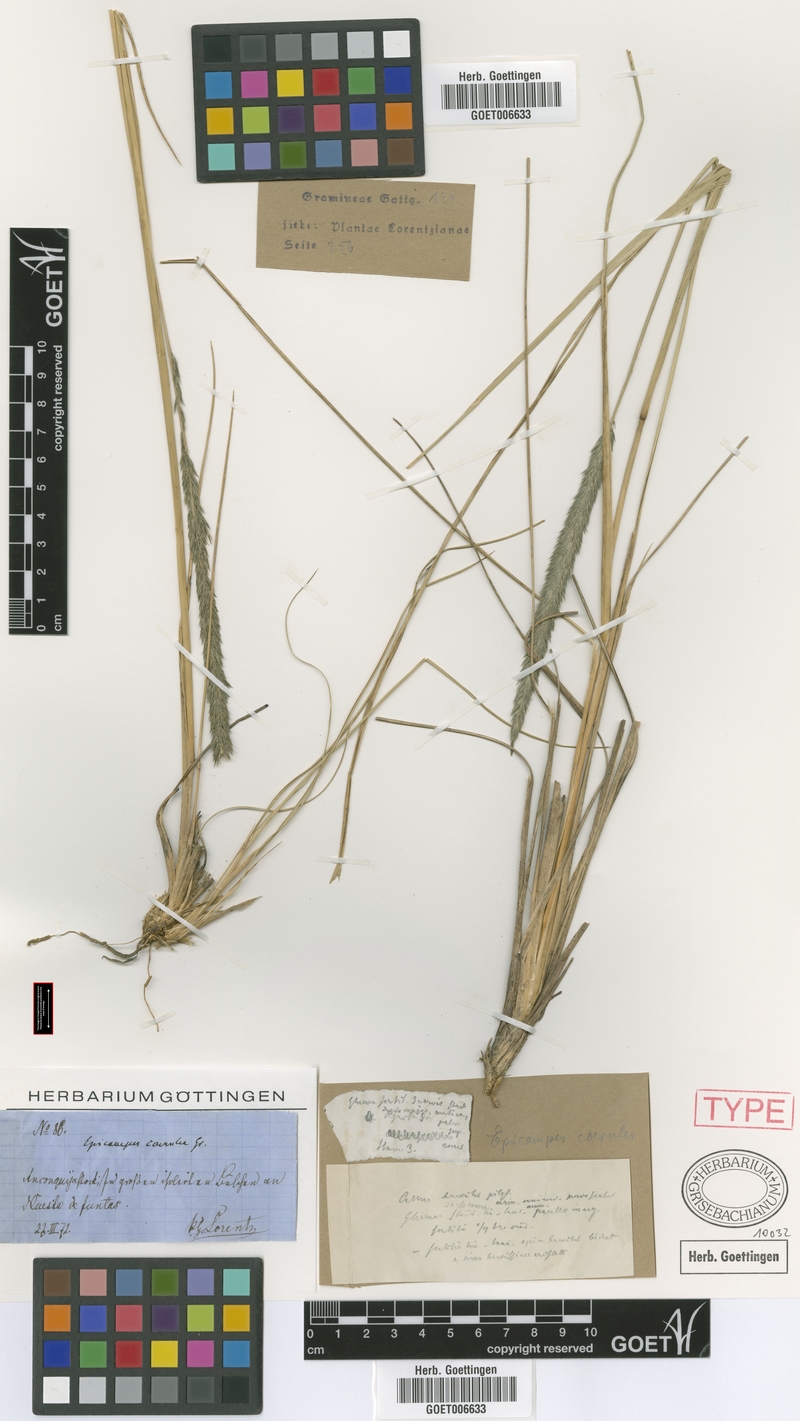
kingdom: Plantae
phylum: Tracheophyta
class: Liliopsida
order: Poales
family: Poaceae
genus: Muhlenbergia
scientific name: Muhlenbergia angustata
